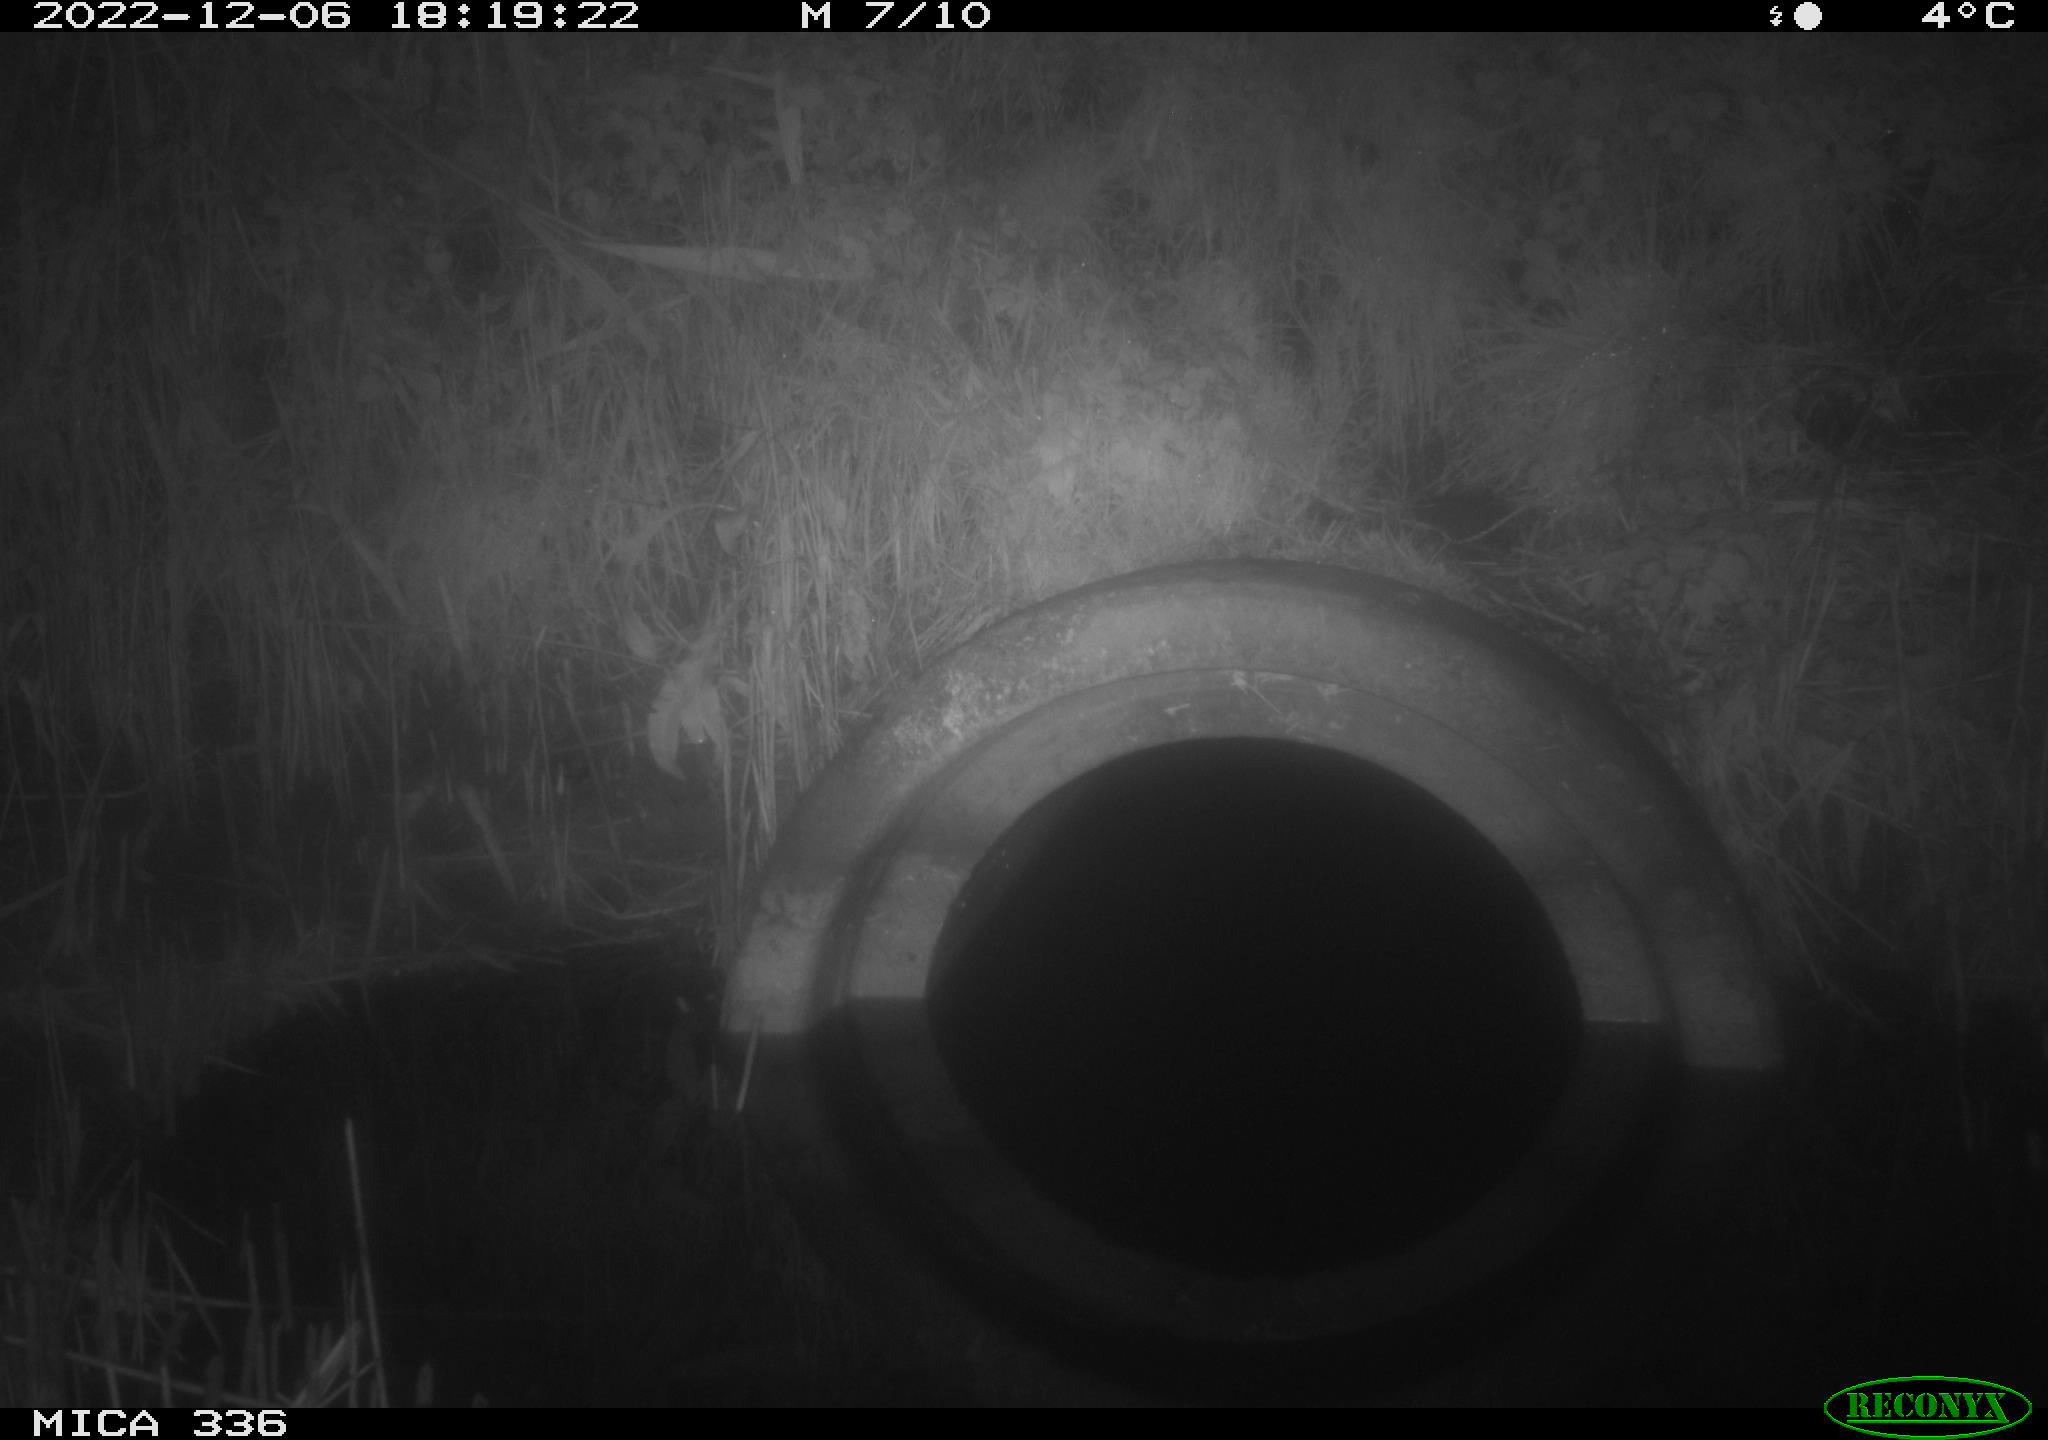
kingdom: Animalia
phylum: Chordata
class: Mammalia
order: Rodentia
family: Muridae
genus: Rattus
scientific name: Rattus norvegicus
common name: Brown rat
